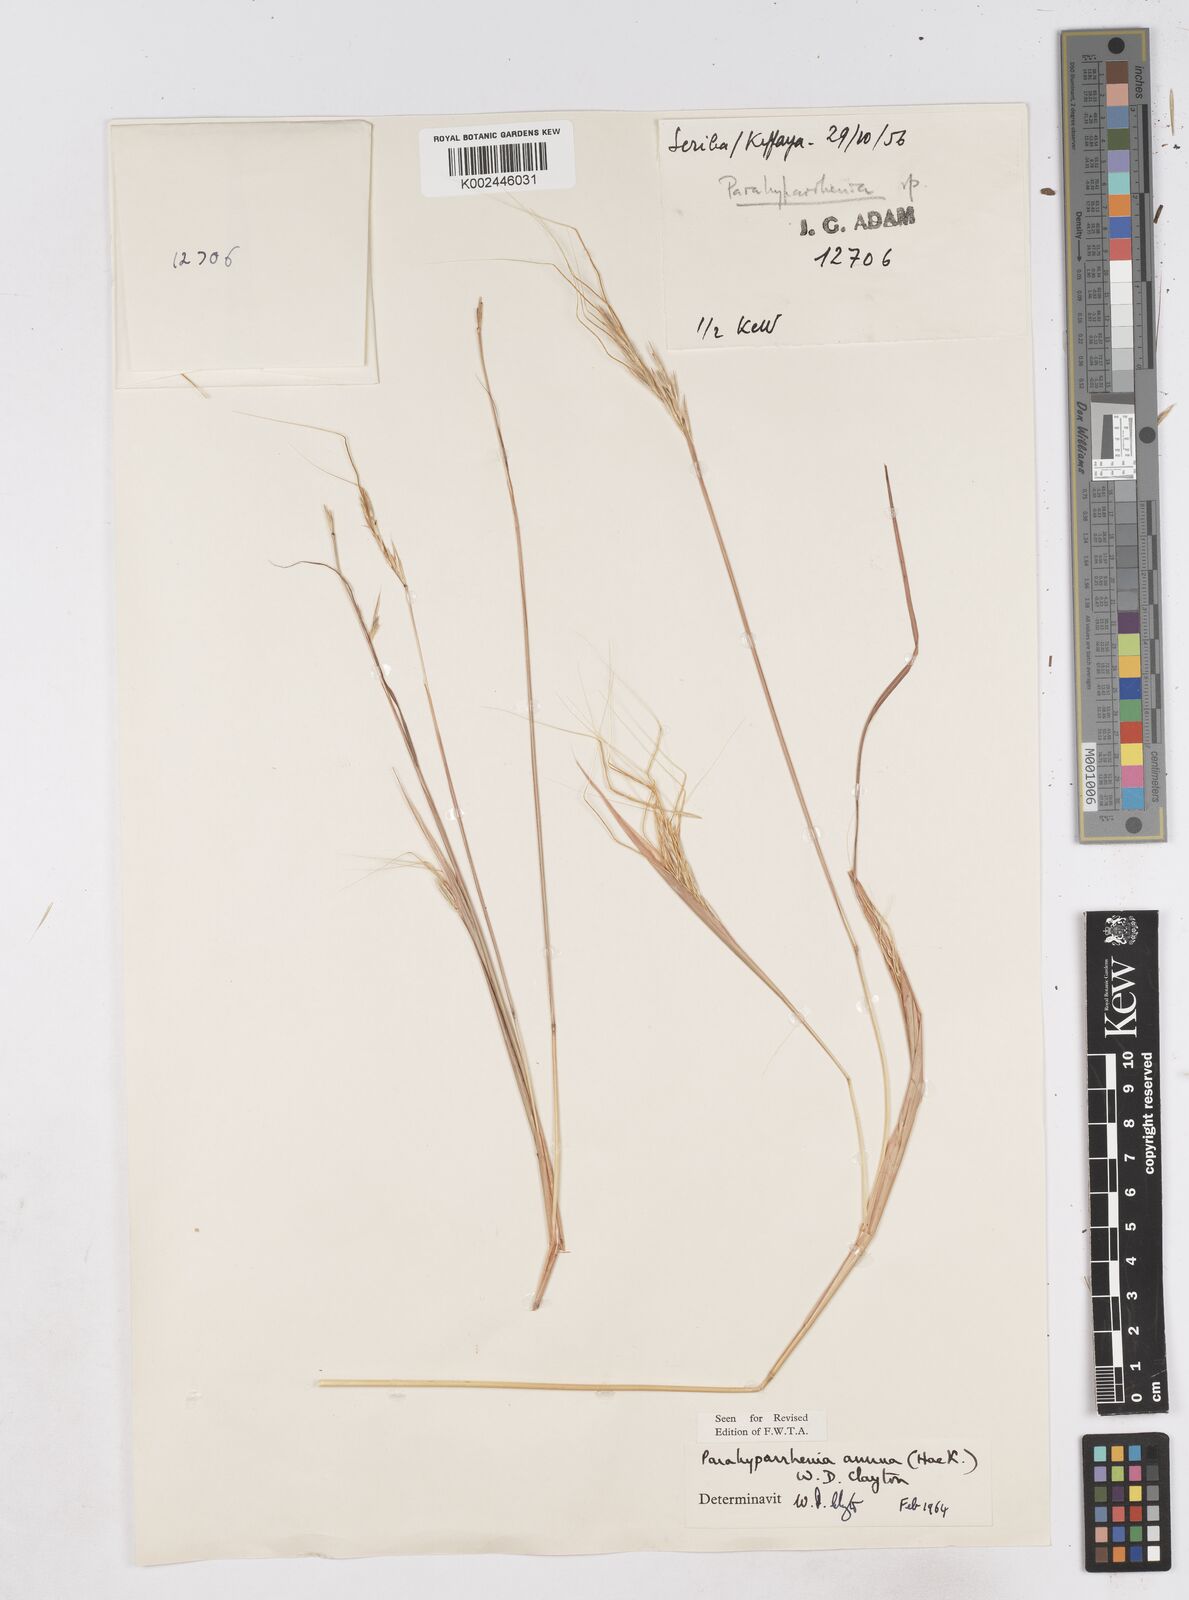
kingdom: Plantae
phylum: Tracheophyta
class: Liliopsida
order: Poales
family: Poaceae
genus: Parahyparrhenia
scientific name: Parahyparrhenia annua
